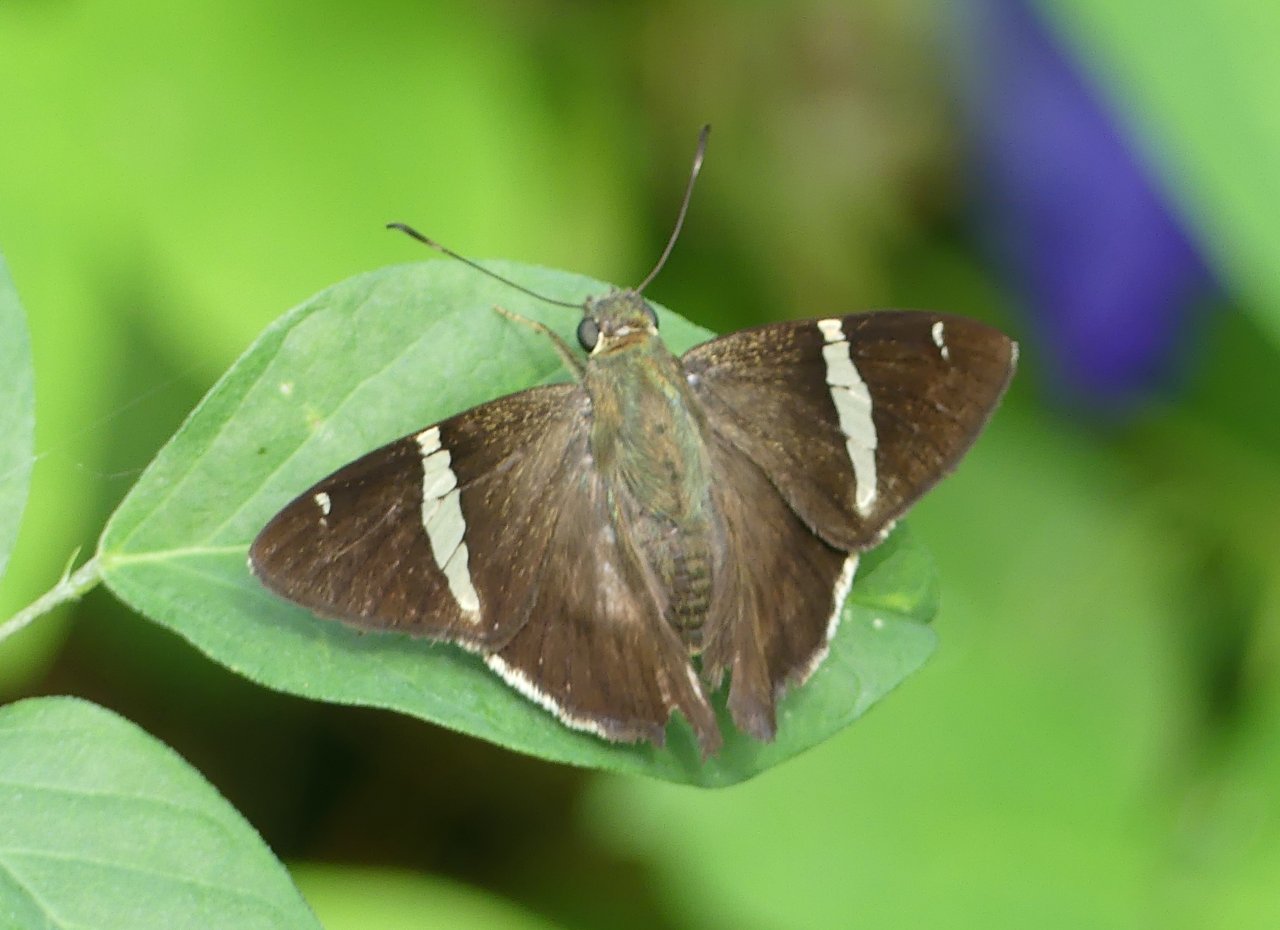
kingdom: Animalia
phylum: Arthropoda
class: Insecta
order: Lepidoptera
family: Hesperiidae
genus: Autochton
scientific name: Autochton longipennis
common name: Spike Banded-Skipper
